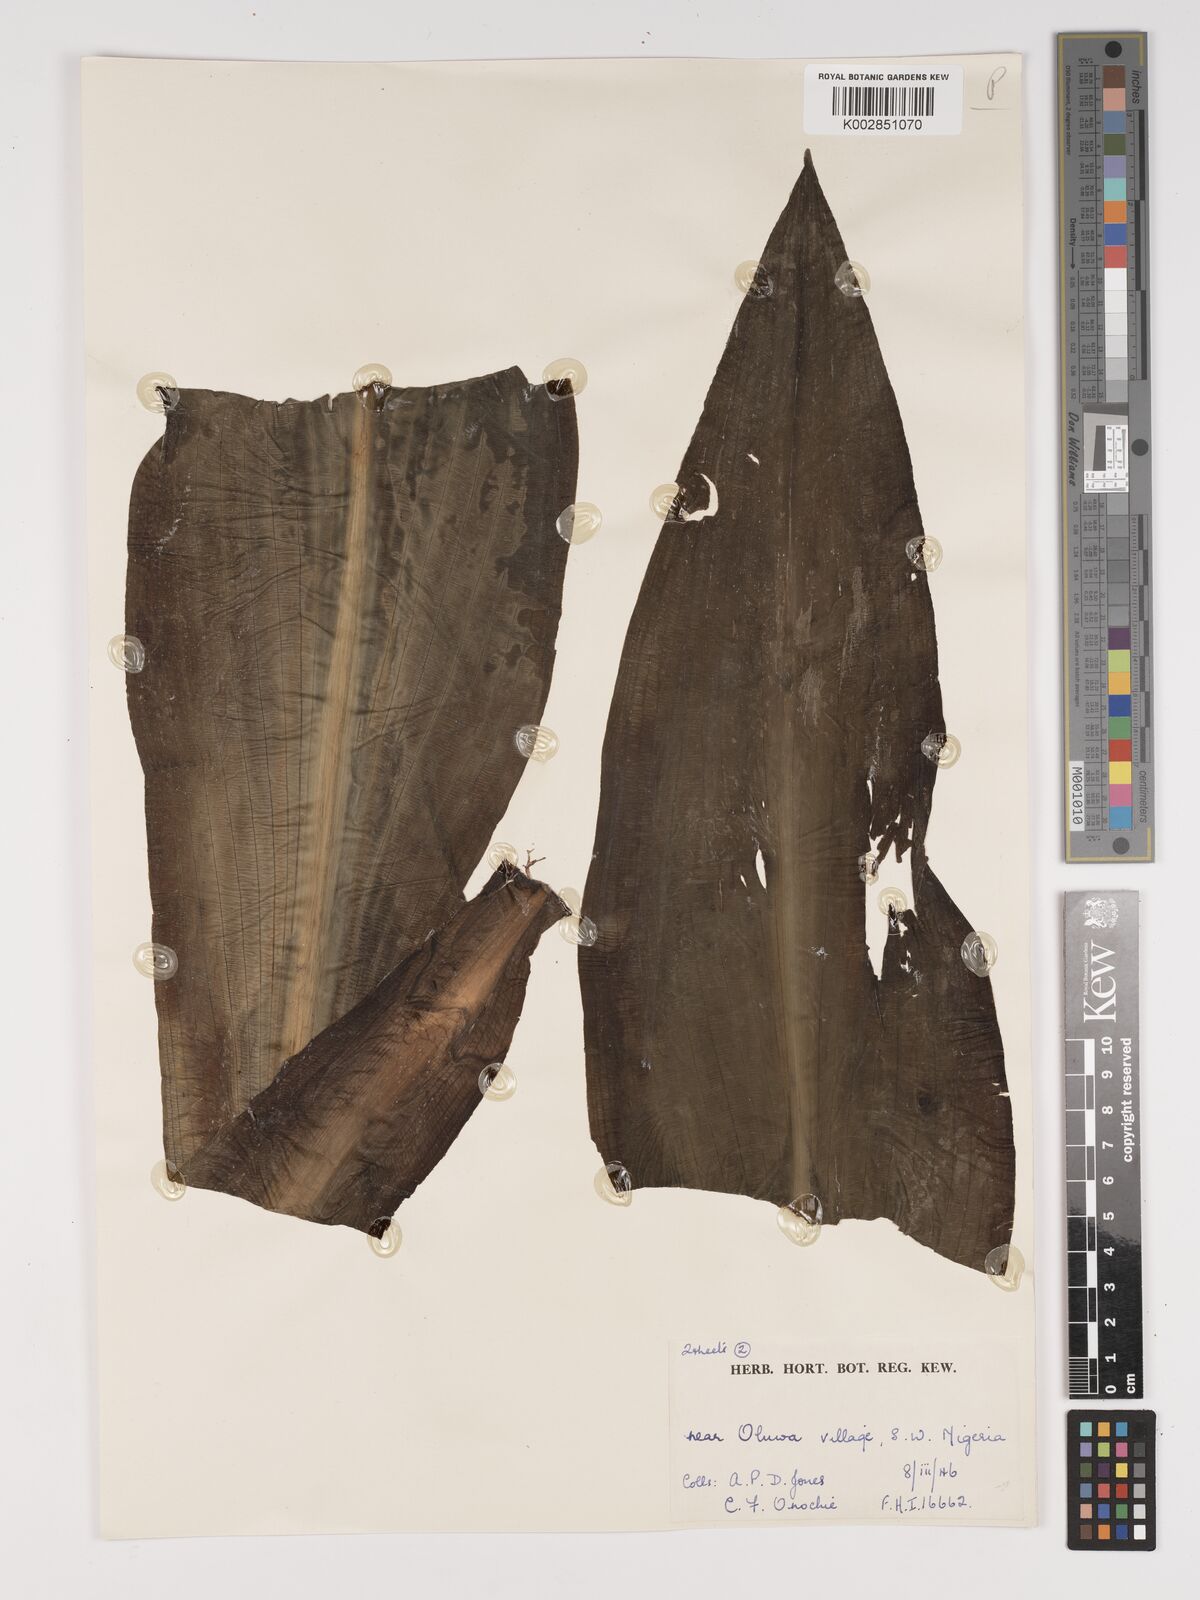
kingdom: Plantae
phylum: Tracheophyta
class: Liliopsida
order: Asparagales
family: Amaryllidaceae
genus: Crinum
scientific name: Crinum jagus
